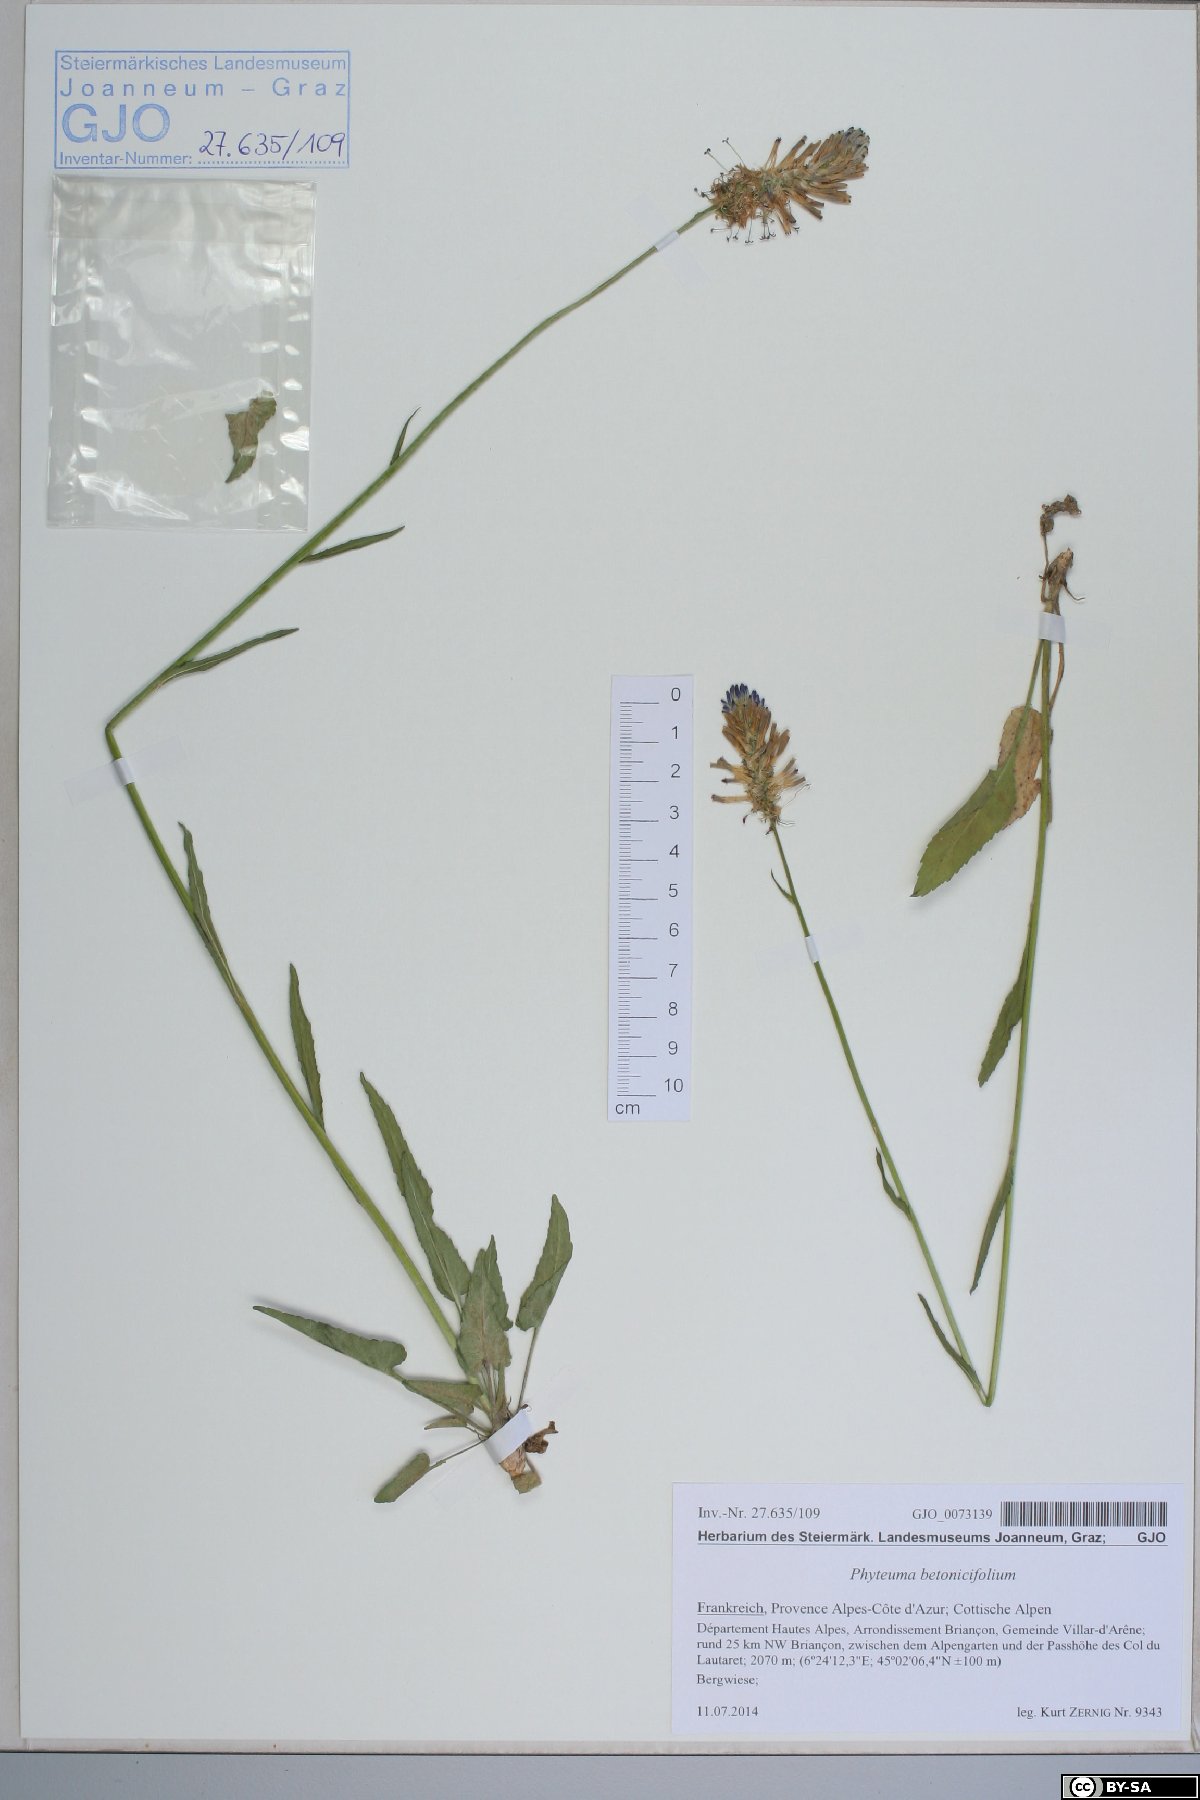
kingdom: Plantae
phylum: Tracheophyta
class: Magnoliopsida
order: Asterales
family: Campanulaceae
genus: Phyteuma
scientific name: Phyteuma betonicifolium
